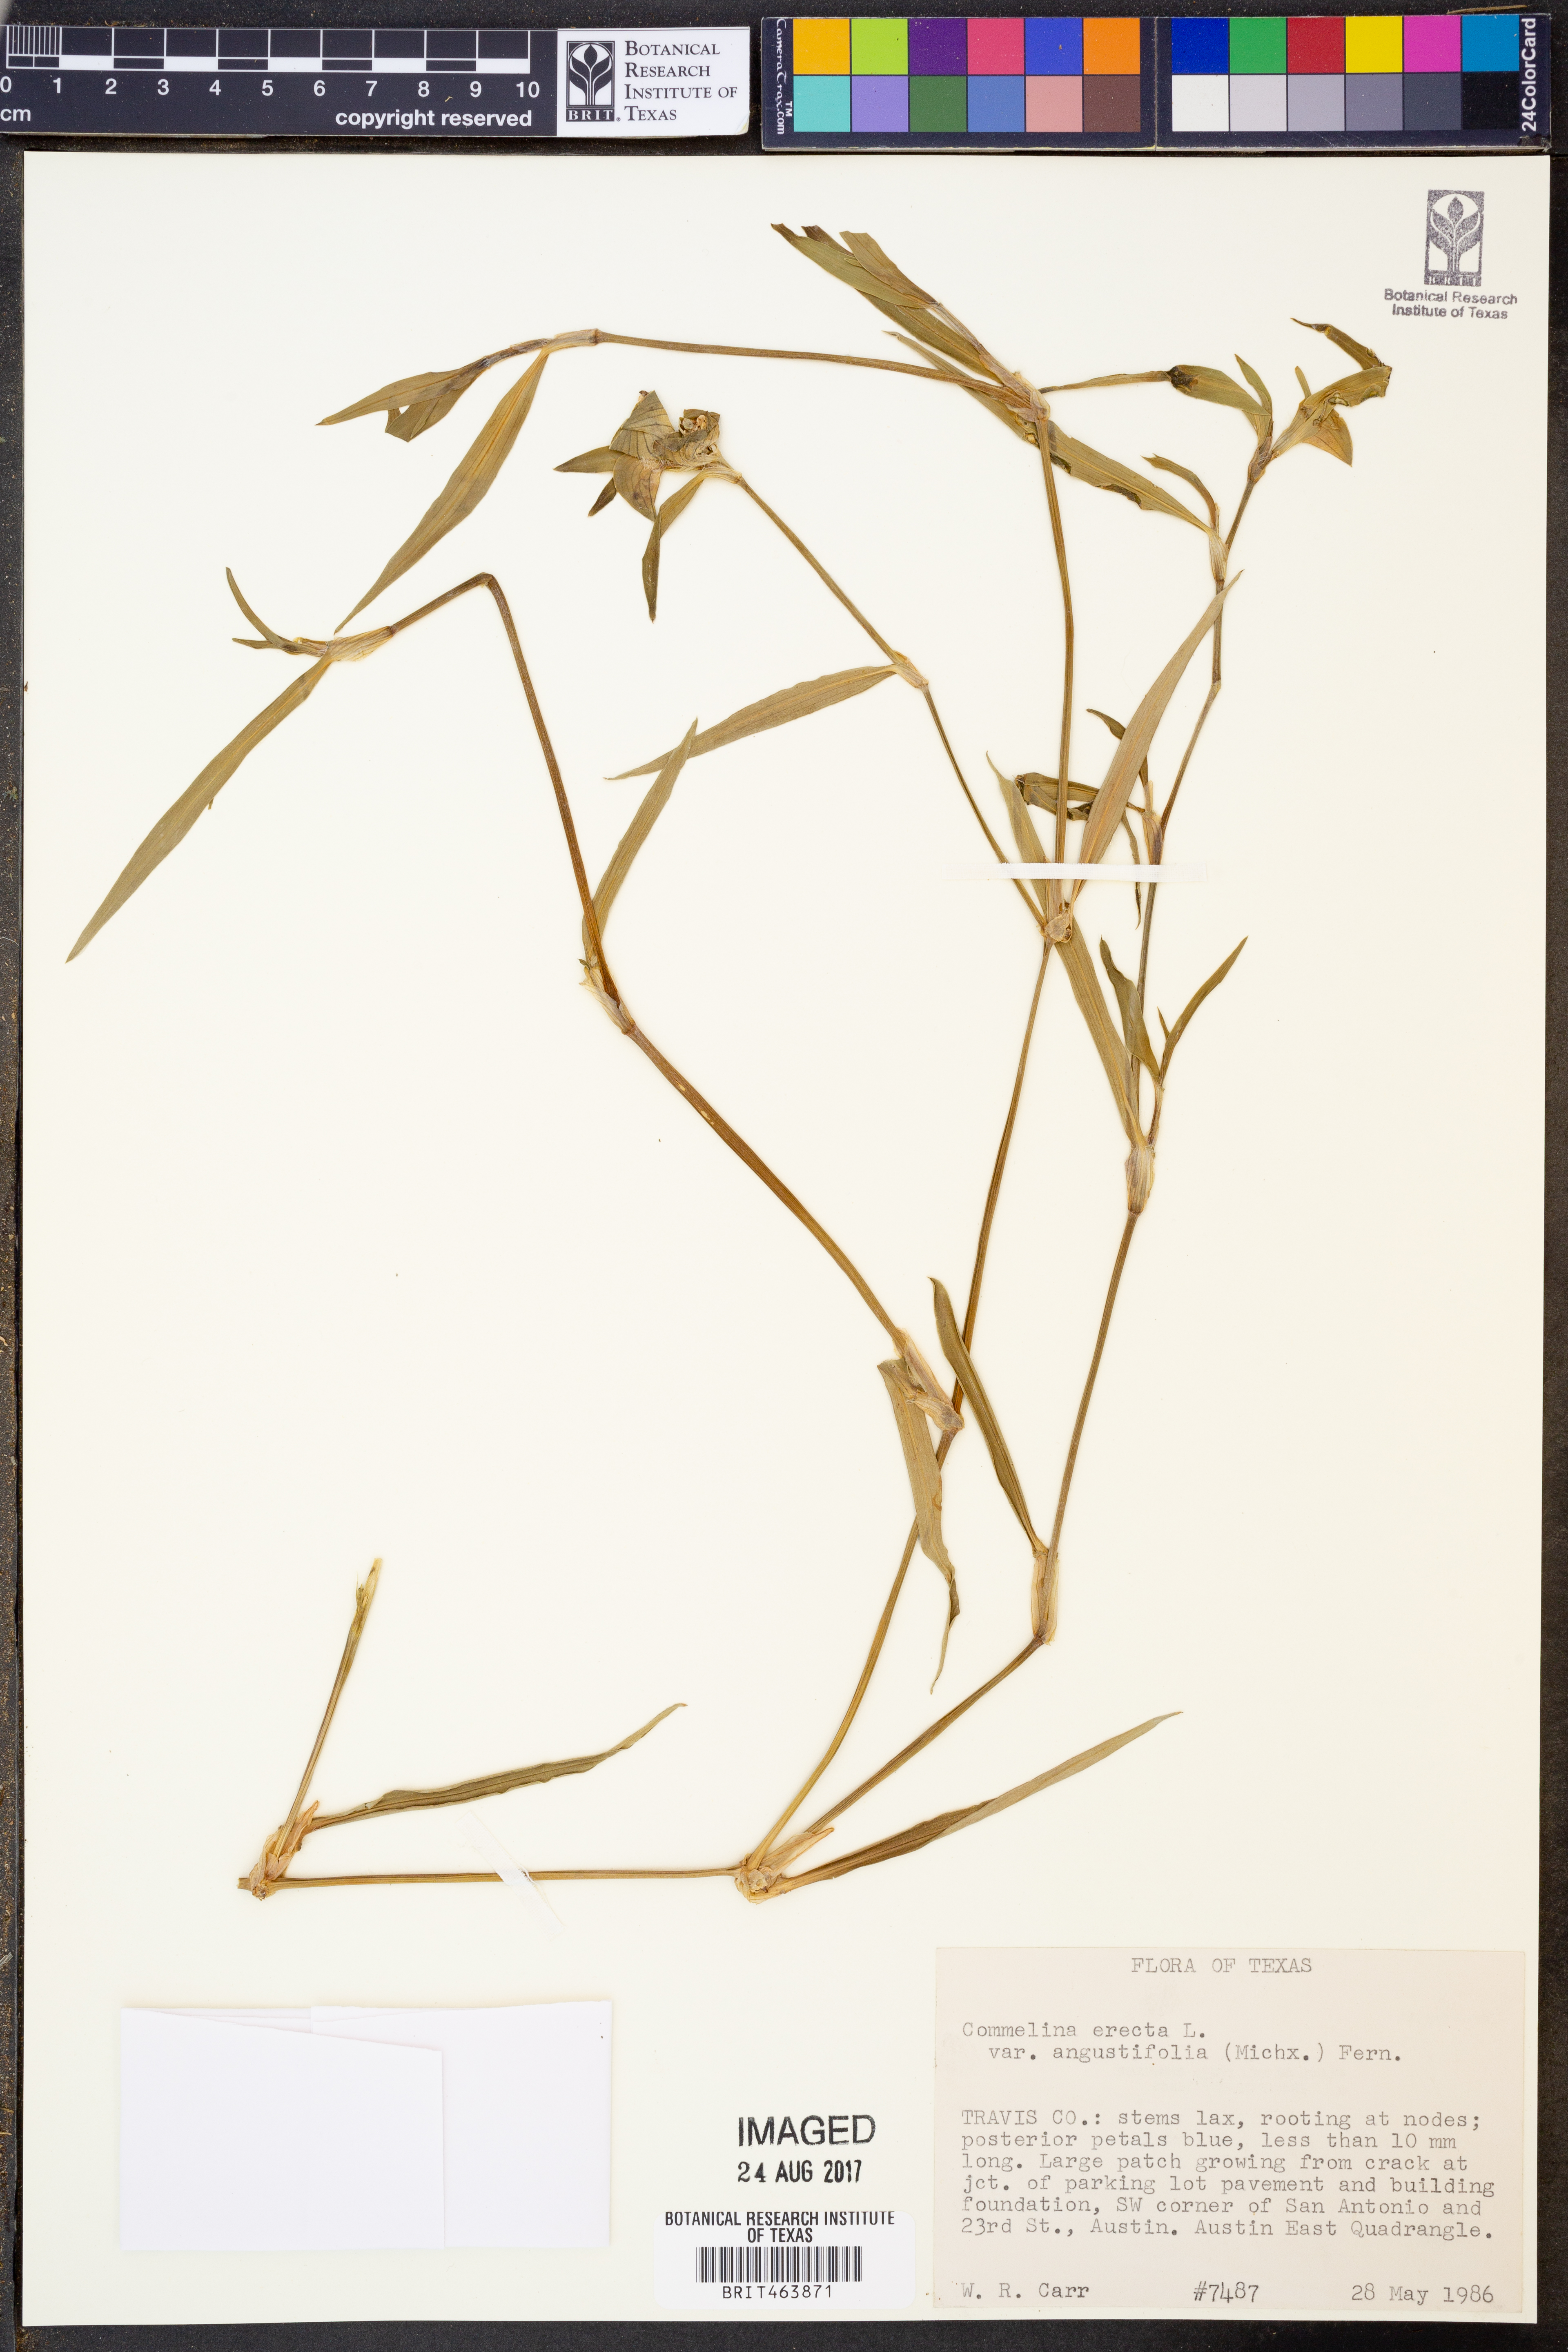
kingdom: Plantae
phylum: Tracheophyta
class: Liliopsida
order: Commelinales
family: Commelinaceae
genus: Commelina
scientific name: Commelina erecta
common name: Blousel blommetjie
